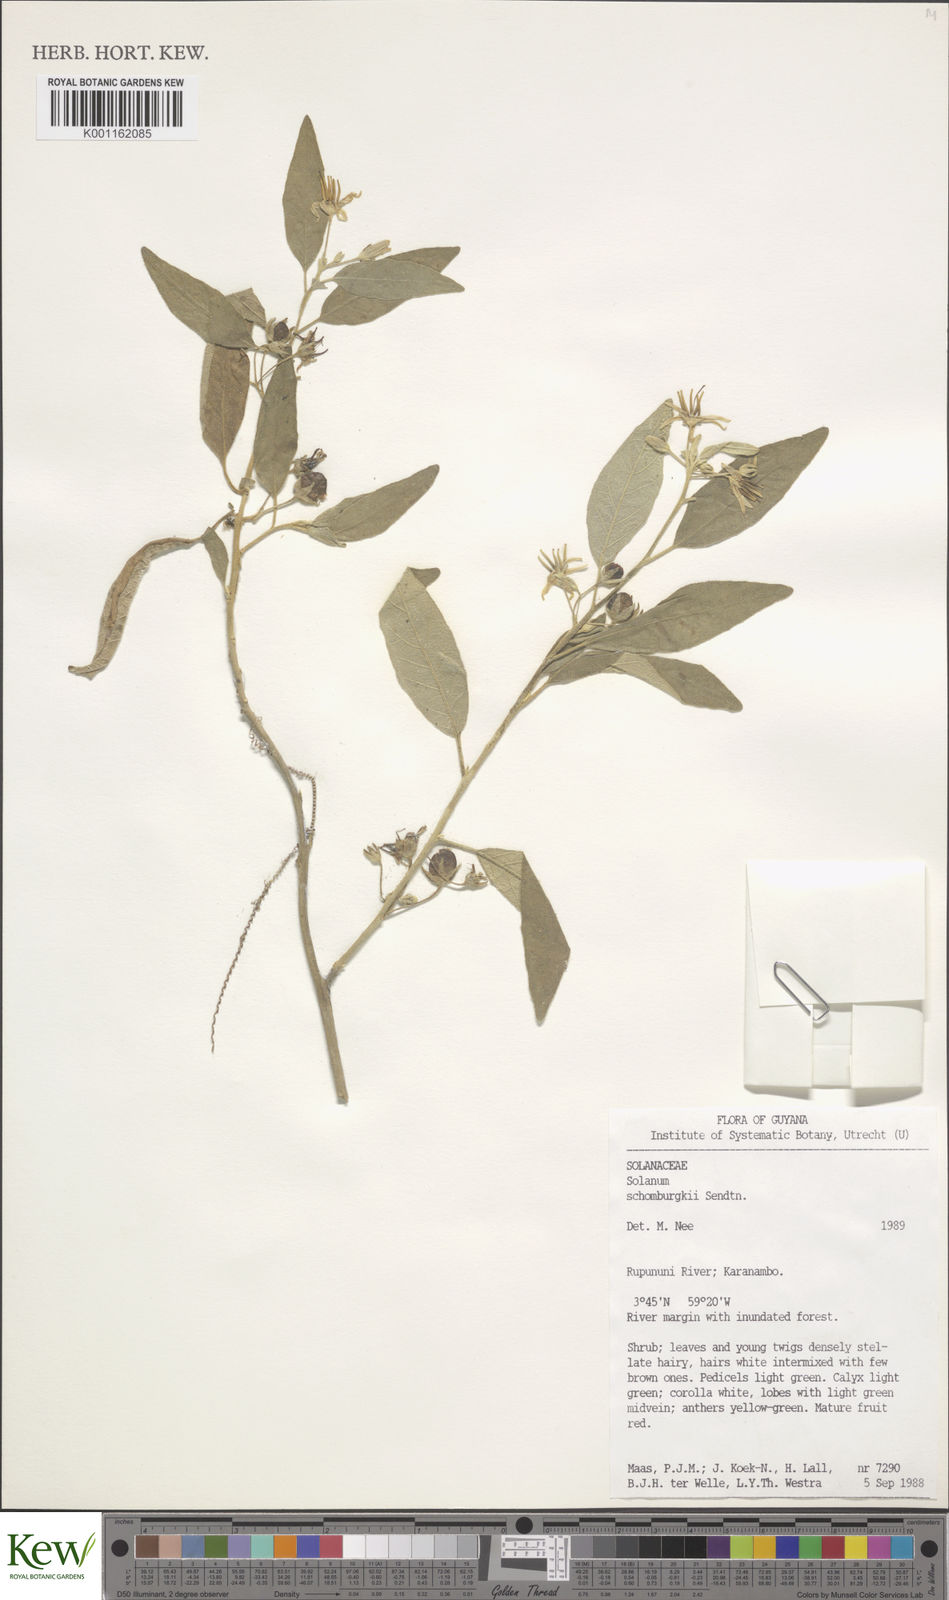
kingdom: Plantae
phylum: Tracheophyta
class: Magnoliopsida
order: Solanales
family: Solanaceae
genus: Solanum
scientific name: Solanum
